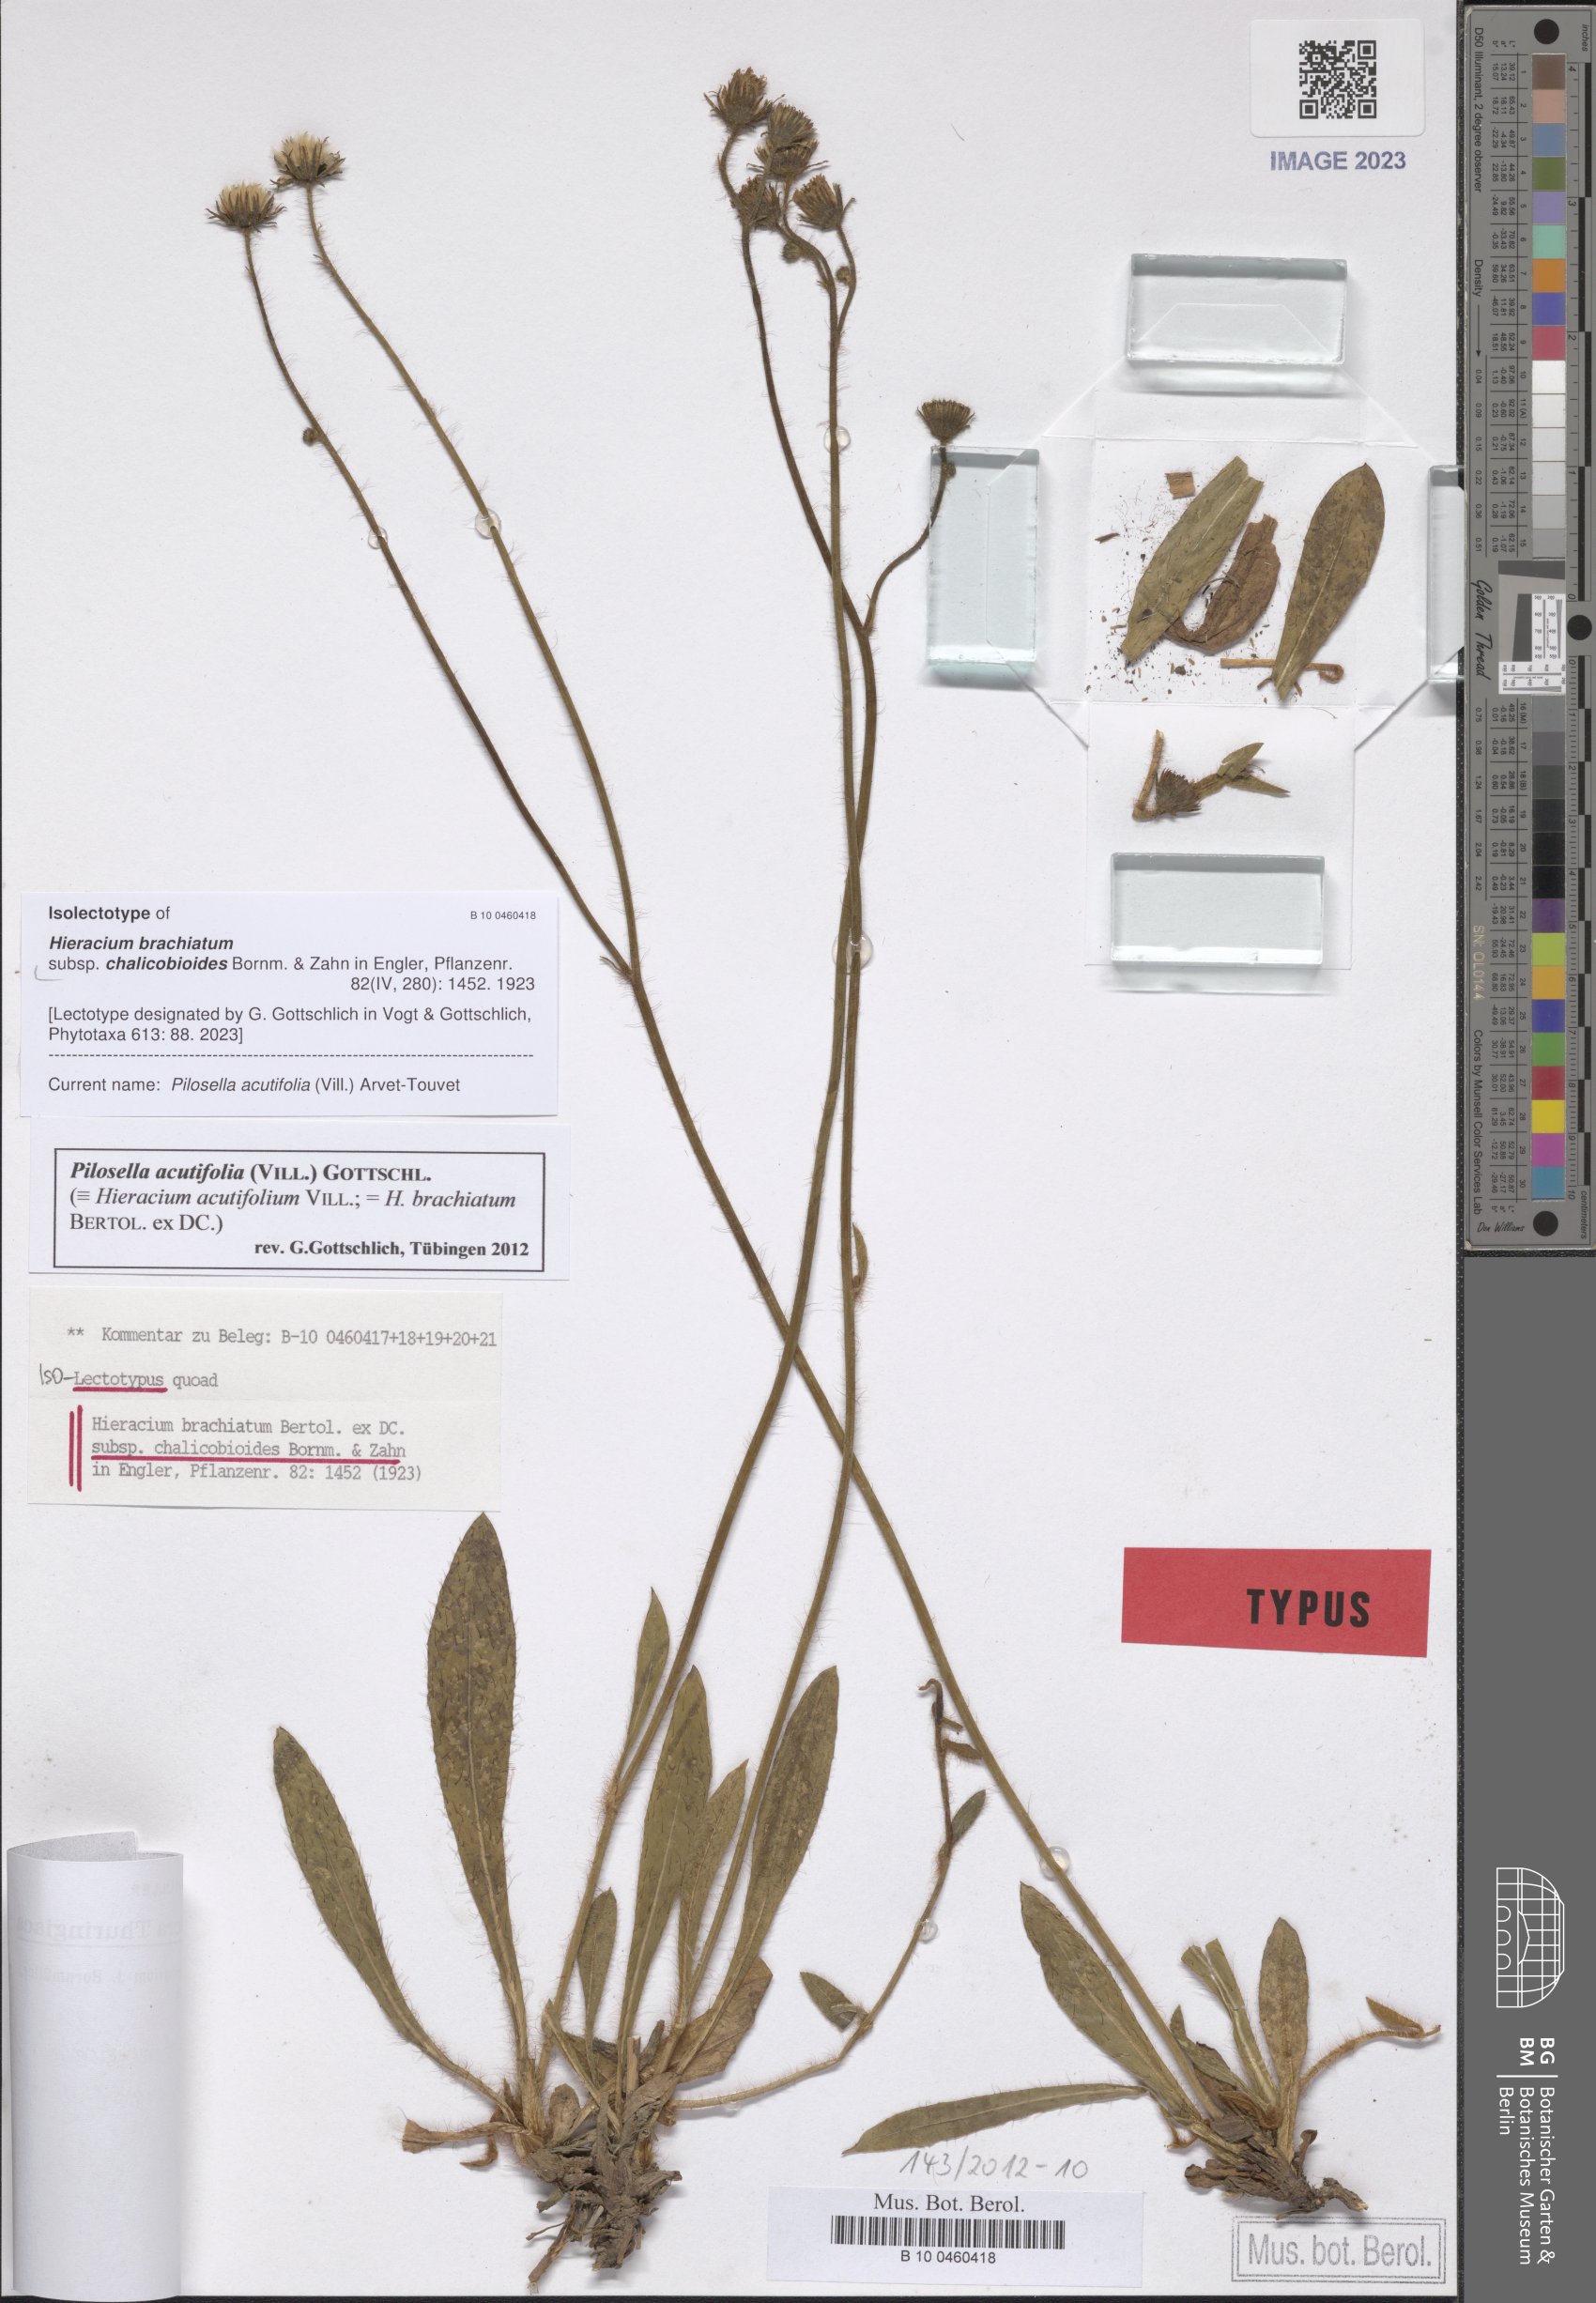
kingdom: Plantae
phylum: Tracheophyta
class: Magnoliopsida
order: Asterales
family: Asteraceae
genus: Pilosella
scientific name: Pilosella acutifolia
